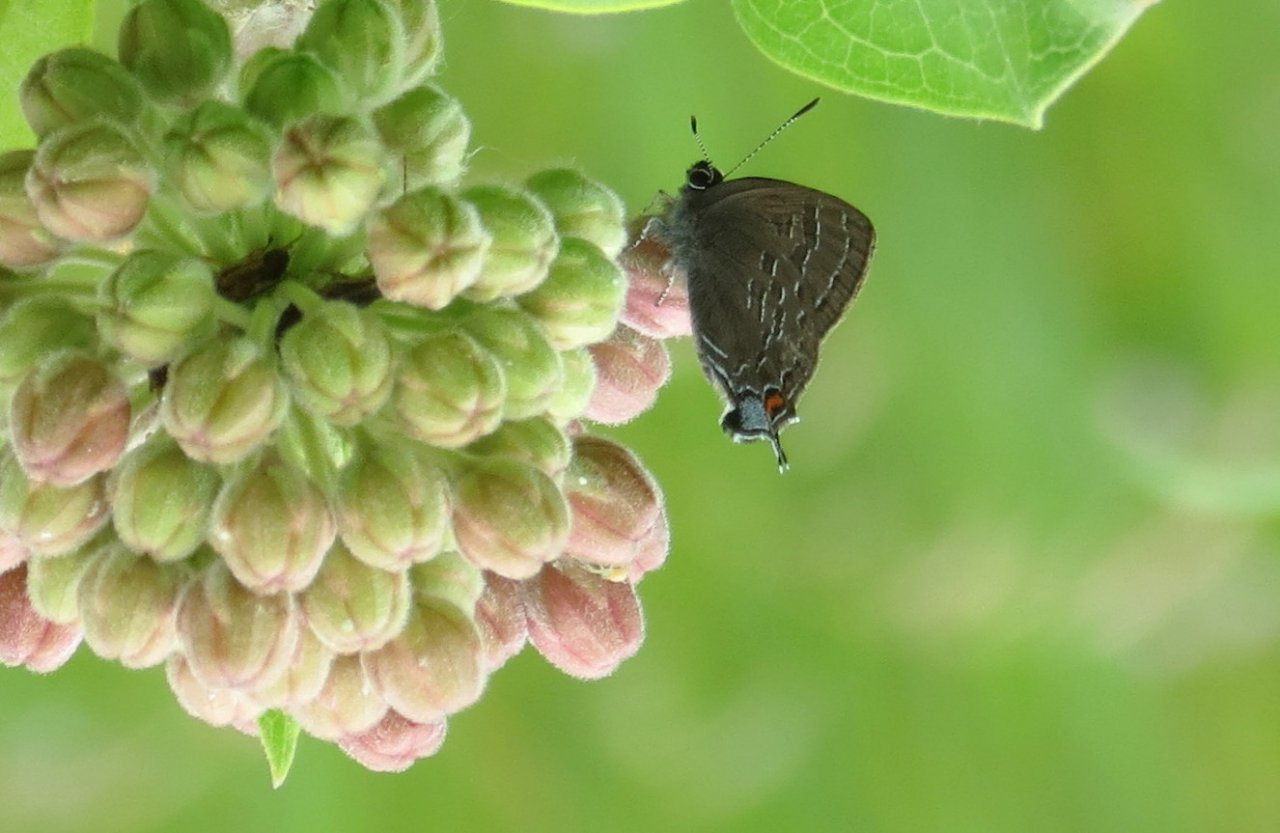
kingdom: Animalia
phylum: Arthropoda
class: Insecta
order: Lepidoptera
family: Lycaenidae
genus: Satyrium
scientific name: Satyrium calanus
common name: Banded Hairstreak
